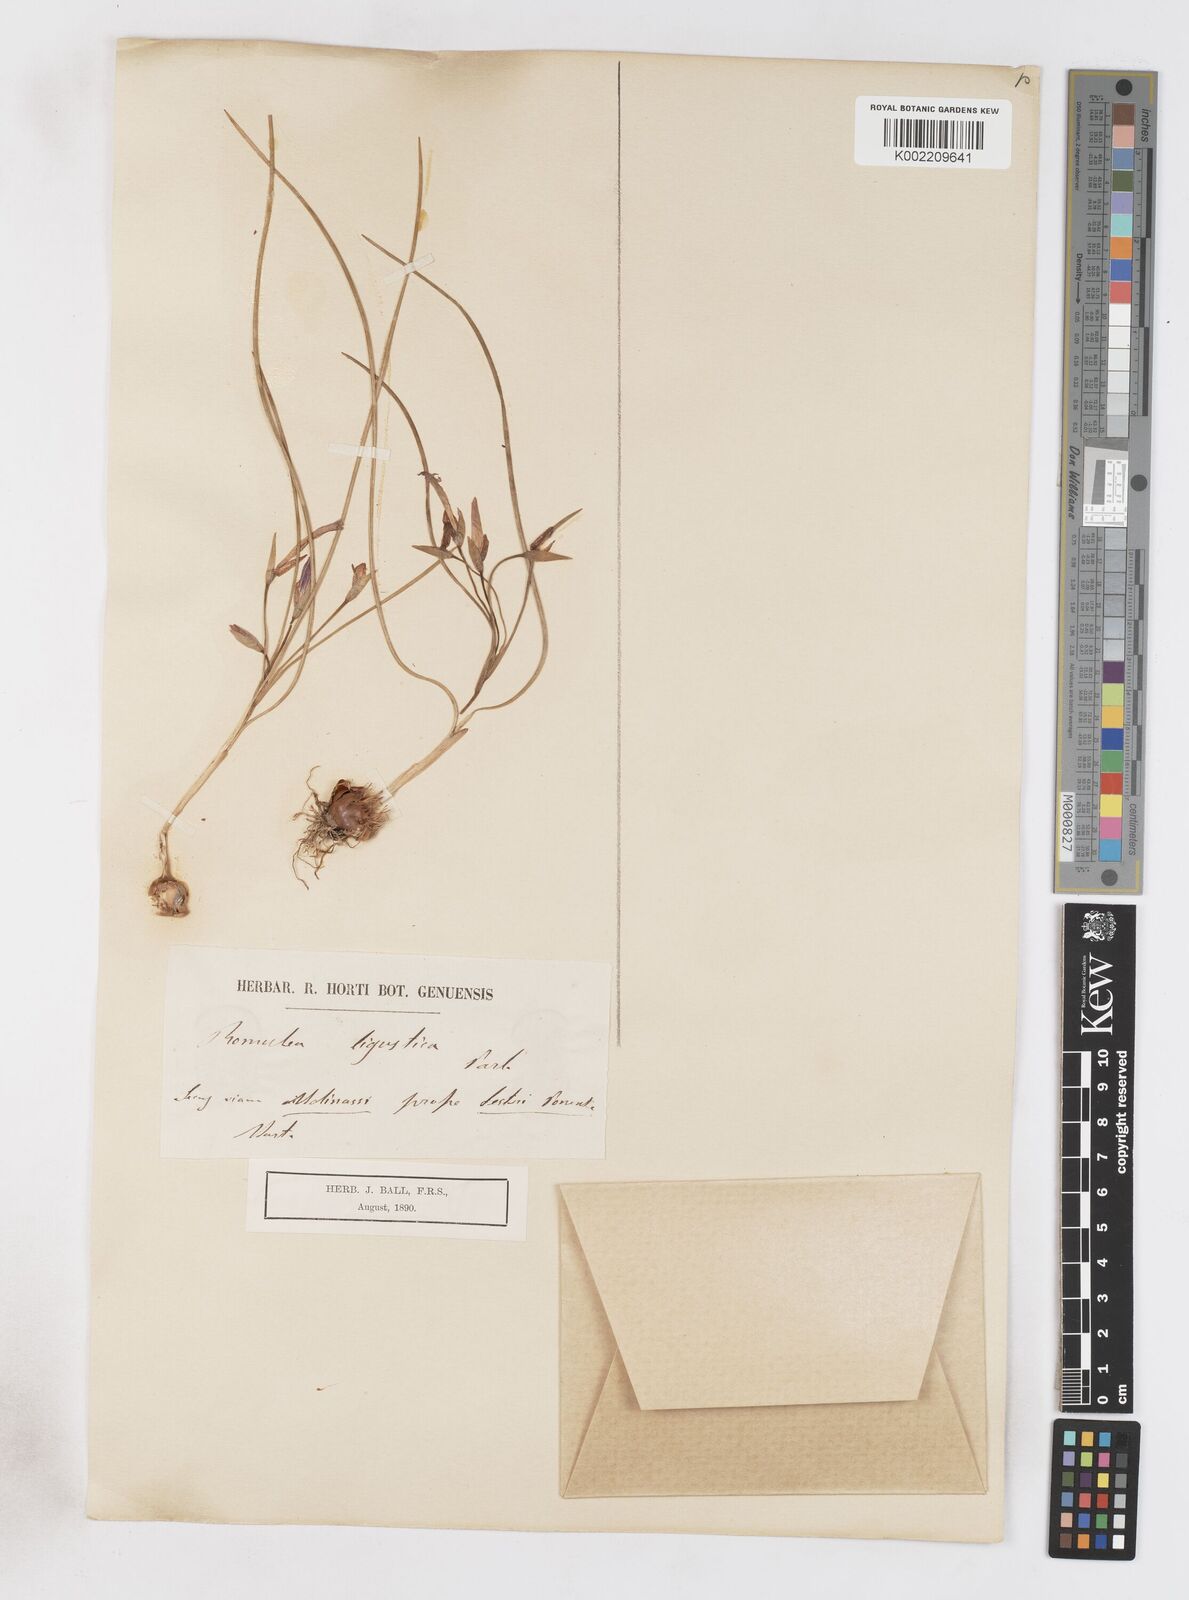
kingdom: Plantae
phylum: Tracheophyta
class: Liliopsida
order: Asparagales
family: Iridaceae
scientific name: Iridaceae
